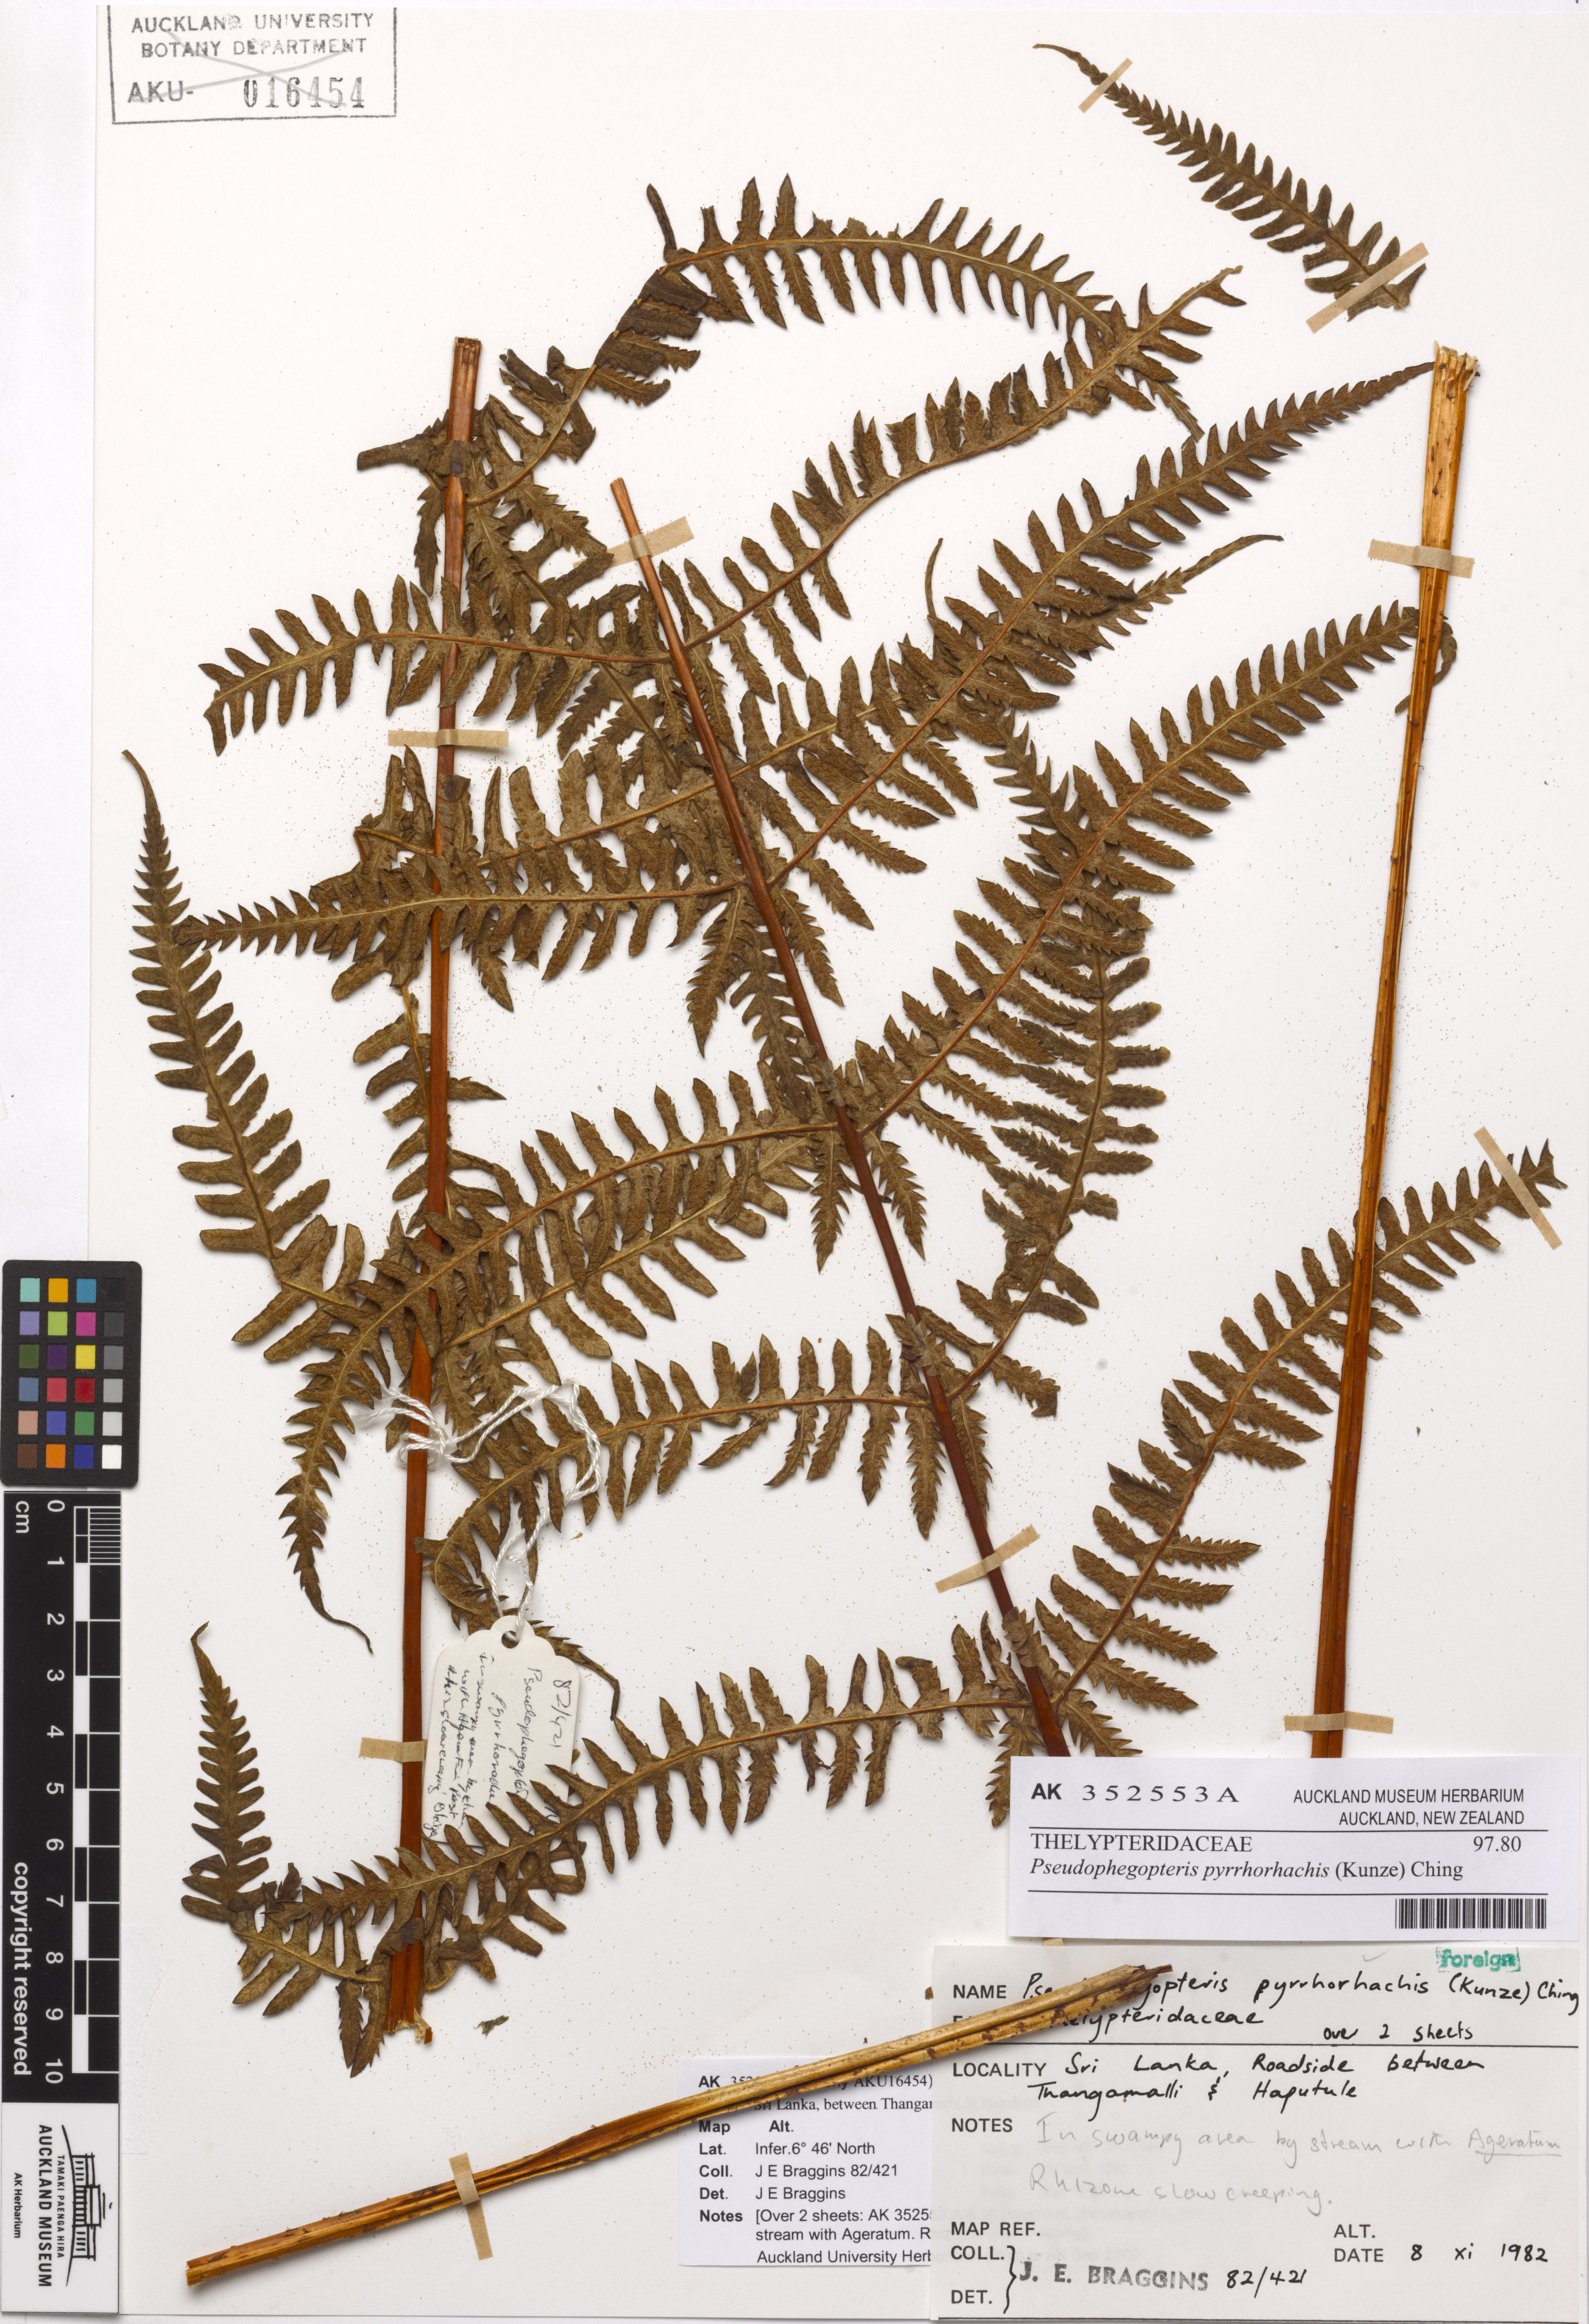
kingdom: Plantae
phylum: Tracheophyta
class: Polypodiopsida
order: Polypodiales
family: Thelypteridaceae
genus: Pseudophegopteris
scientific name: Pseudophegopteris pyrrhorachis
